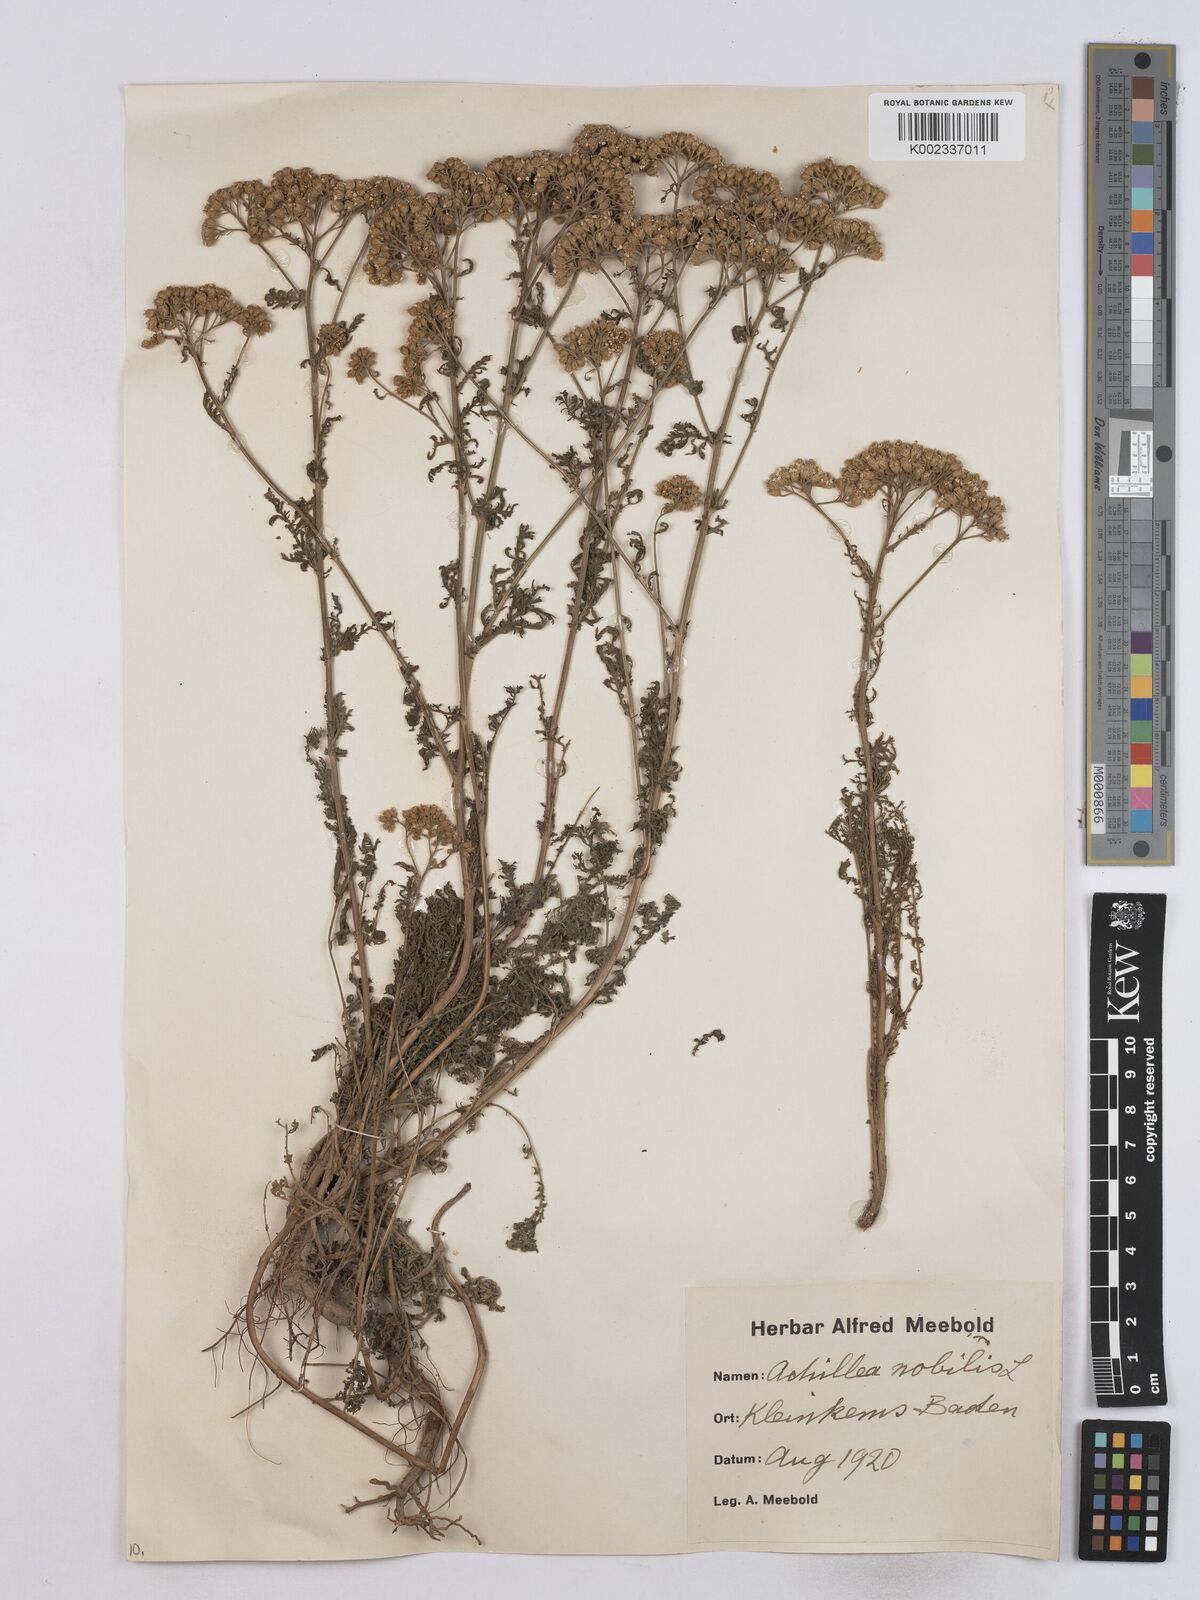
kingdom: Plantae
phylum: Tracheophyta
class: Magnoliopsida
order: Asterales
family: Asteraceae
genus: Achillea
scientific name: Achillea nobilis
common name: Noble yarrow
